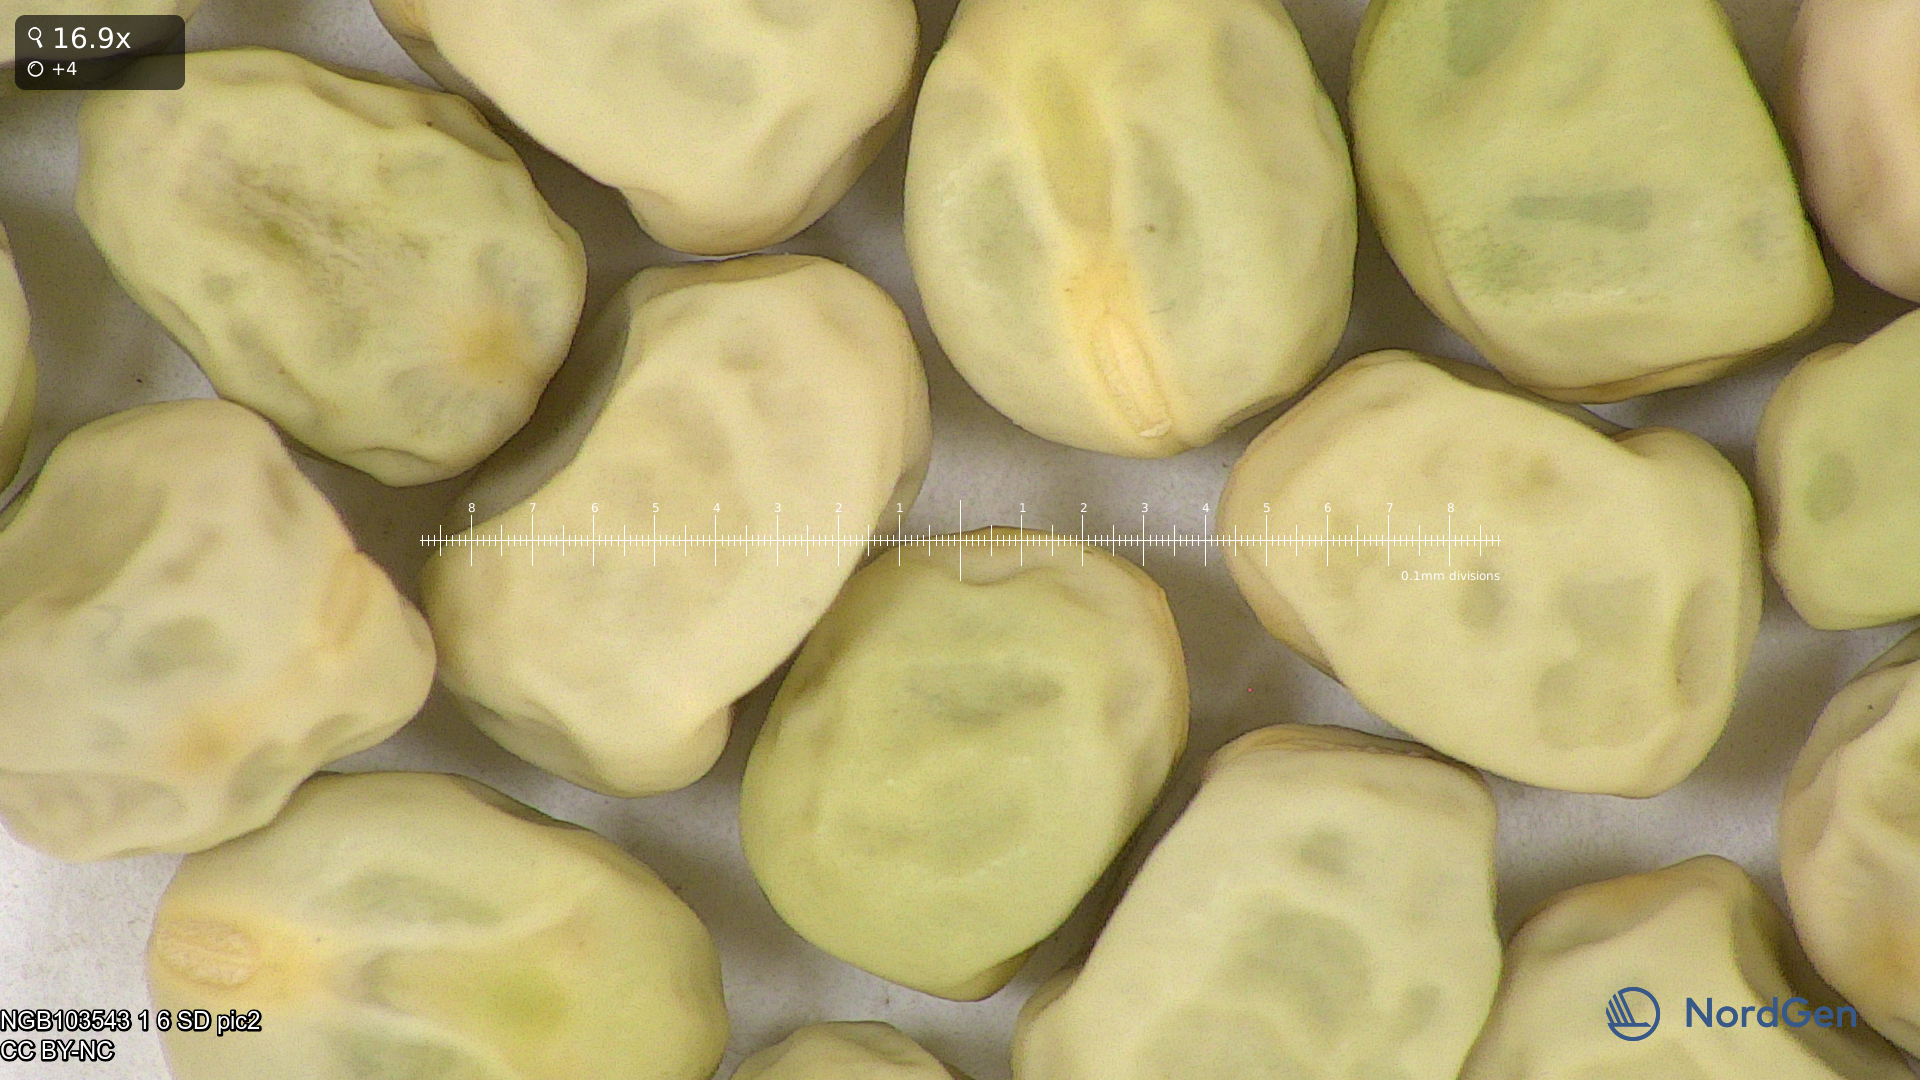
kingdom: Plantae
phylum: Tracheophyta
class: Magnoliopsida
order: Fabales
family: Fabaceae
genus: Lathyrus
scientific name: Lathyrus oleraceus
